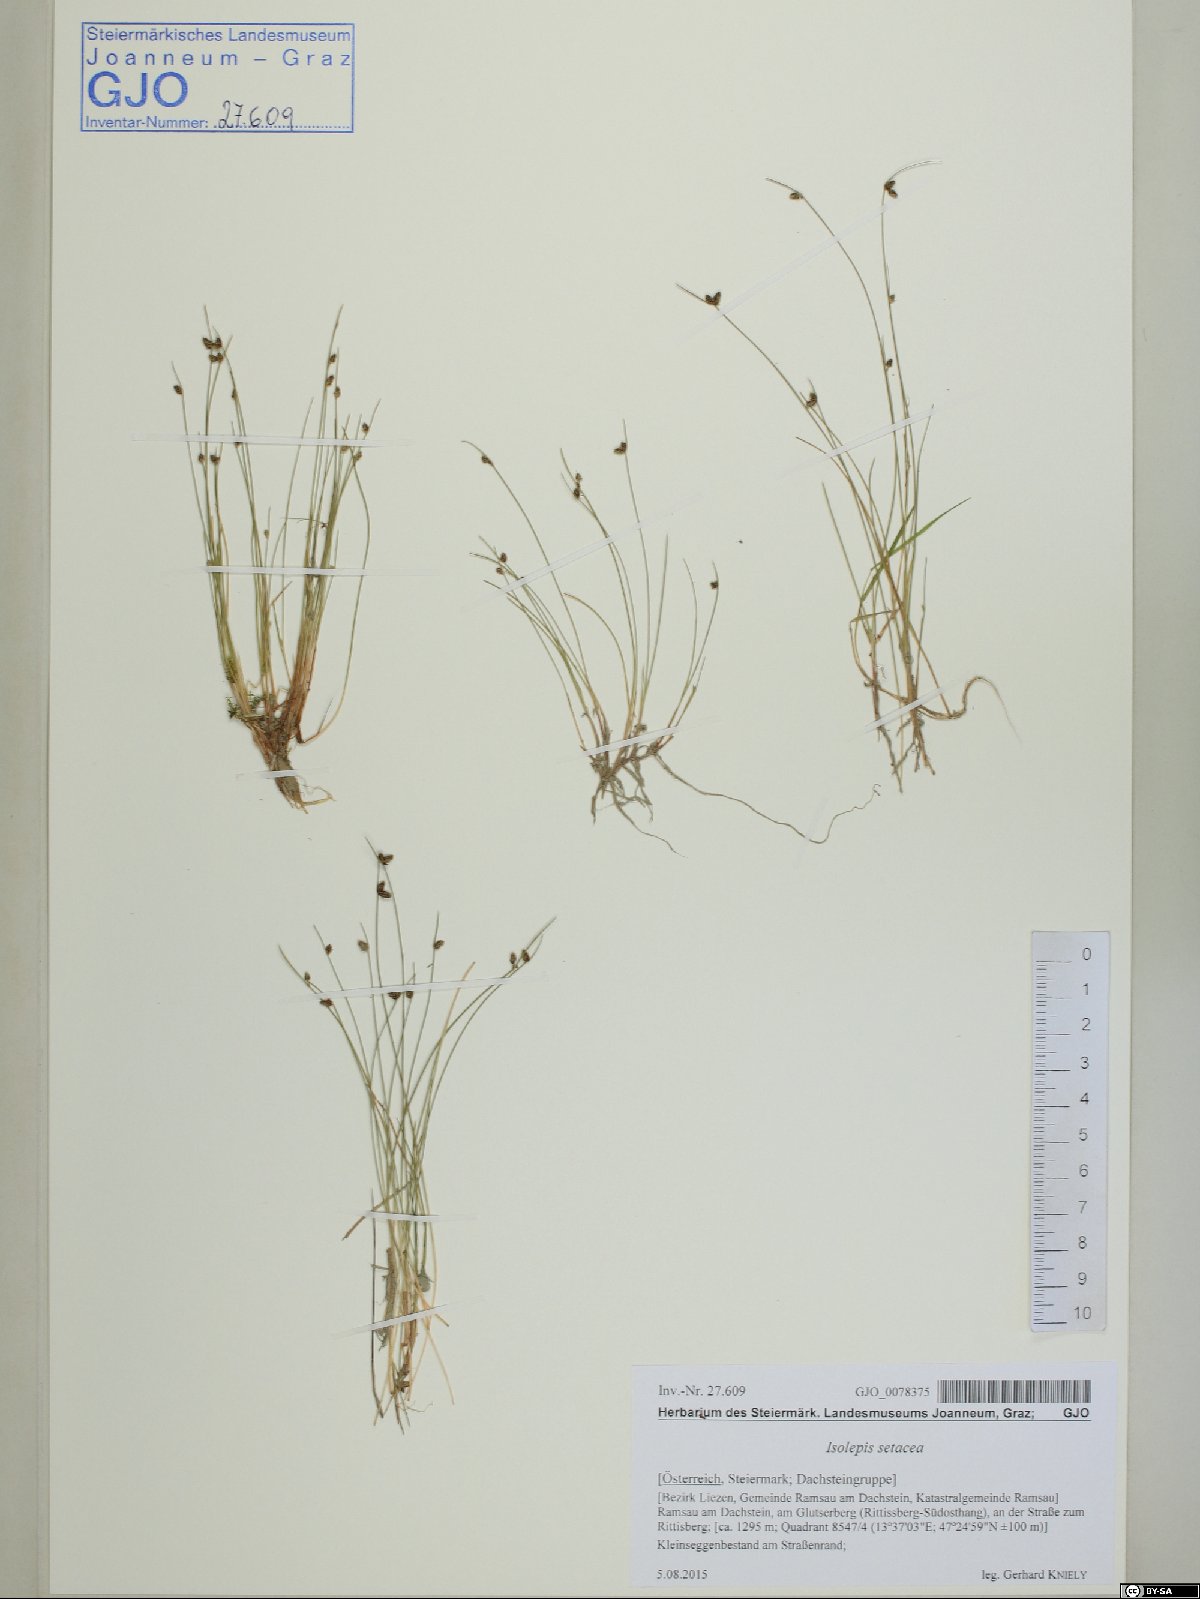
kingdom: Plantae
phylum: Tracheophyta
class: Liliopsida
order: Poales
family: Cyperaceae
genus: Isolepis
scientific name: Isolepis setacea
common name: Bristle club-rush
